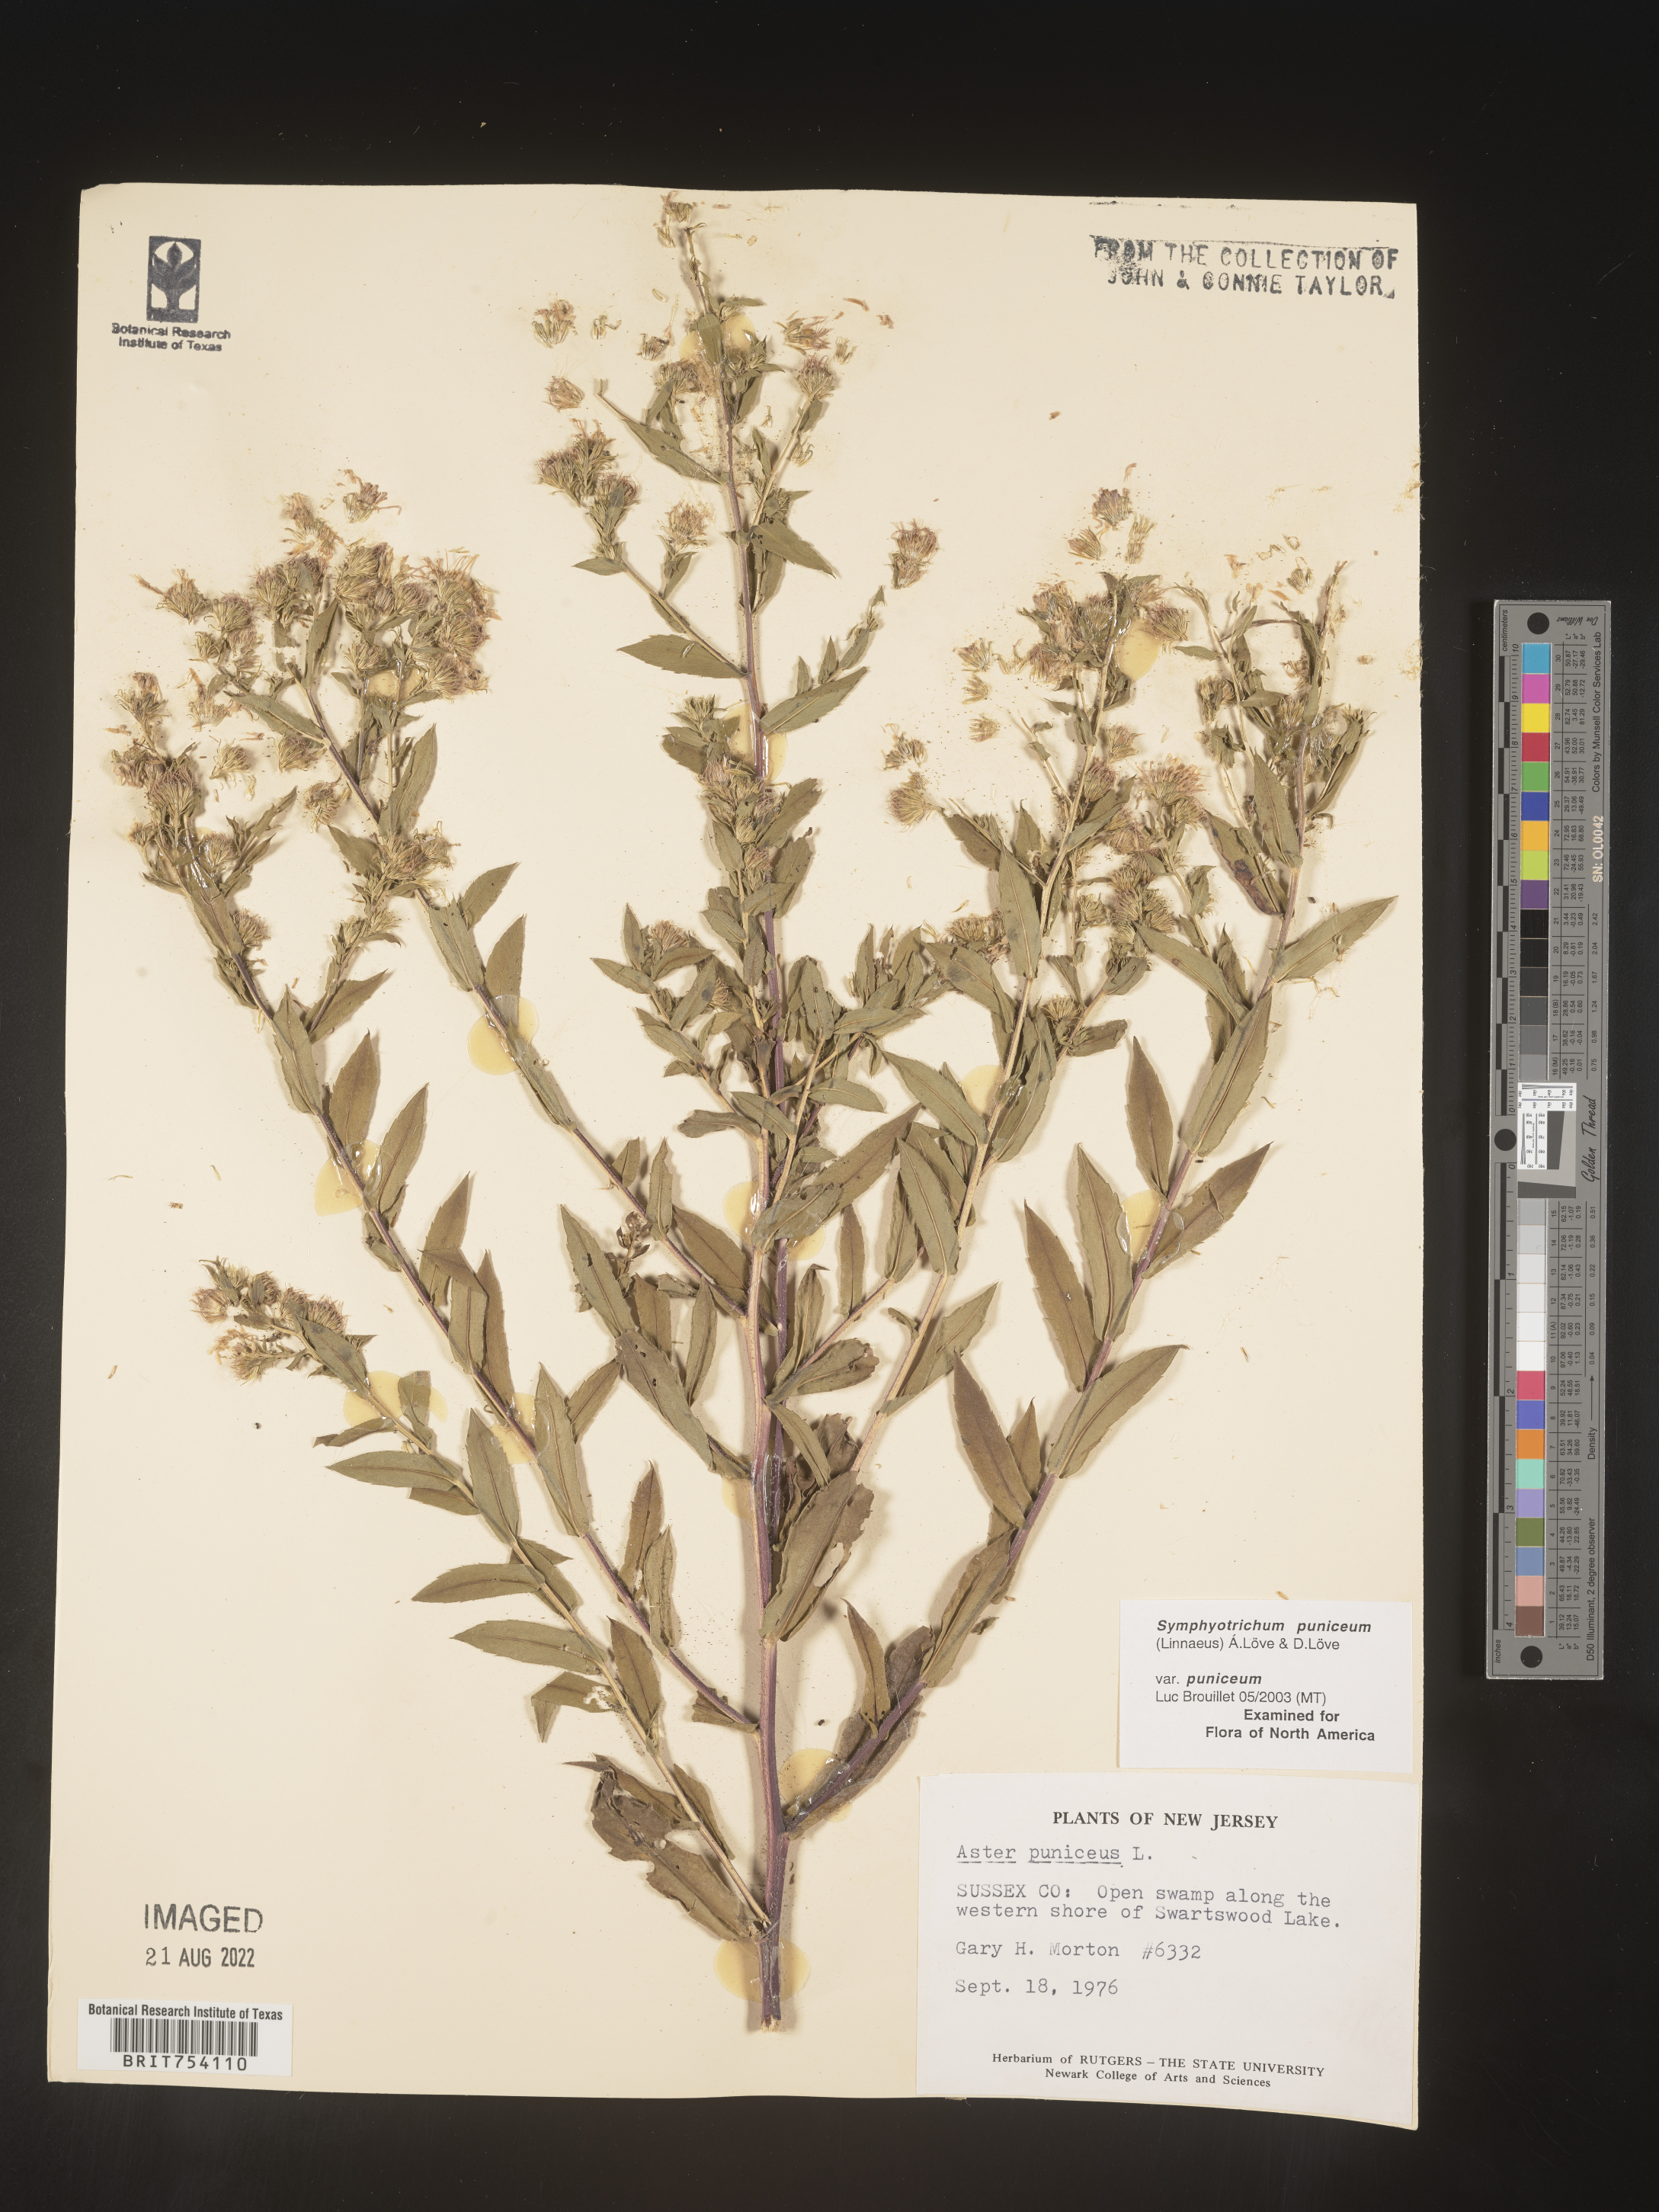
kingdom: Plantae
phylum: Tracheophyta
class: Magnoliopsida
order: Asterales
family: Asteraceae
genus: Symphyotrichum
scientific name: Symphyotrichum puniceum
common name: Bog aster
